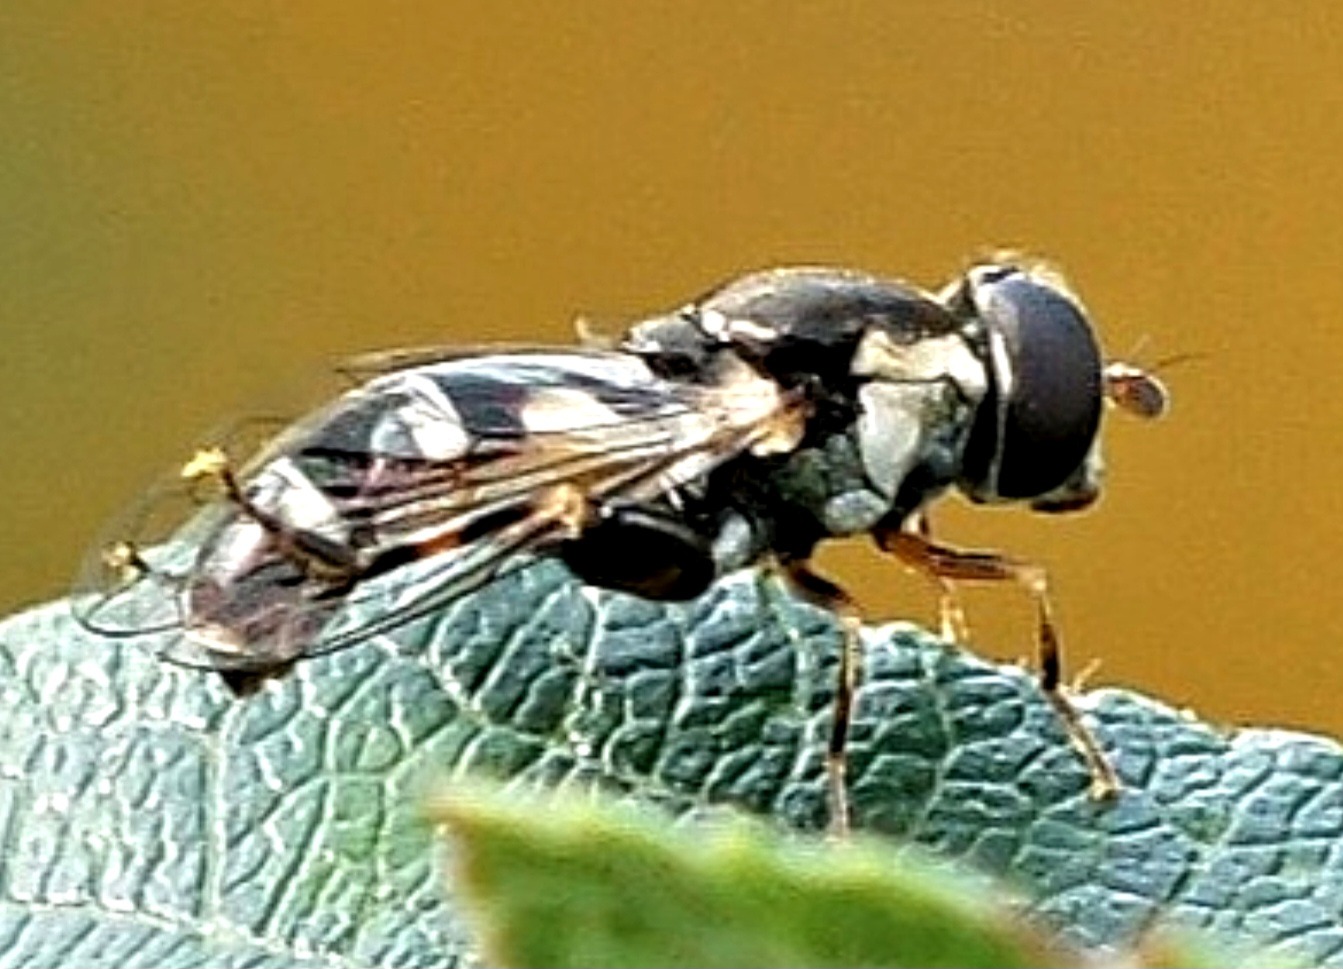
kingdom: Animalia
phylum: Arthropoda
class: Insecta
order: Diptera
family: Syrphidae
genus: Syritta
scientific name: Syritta pipiens
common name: Kompost-svirreflue
